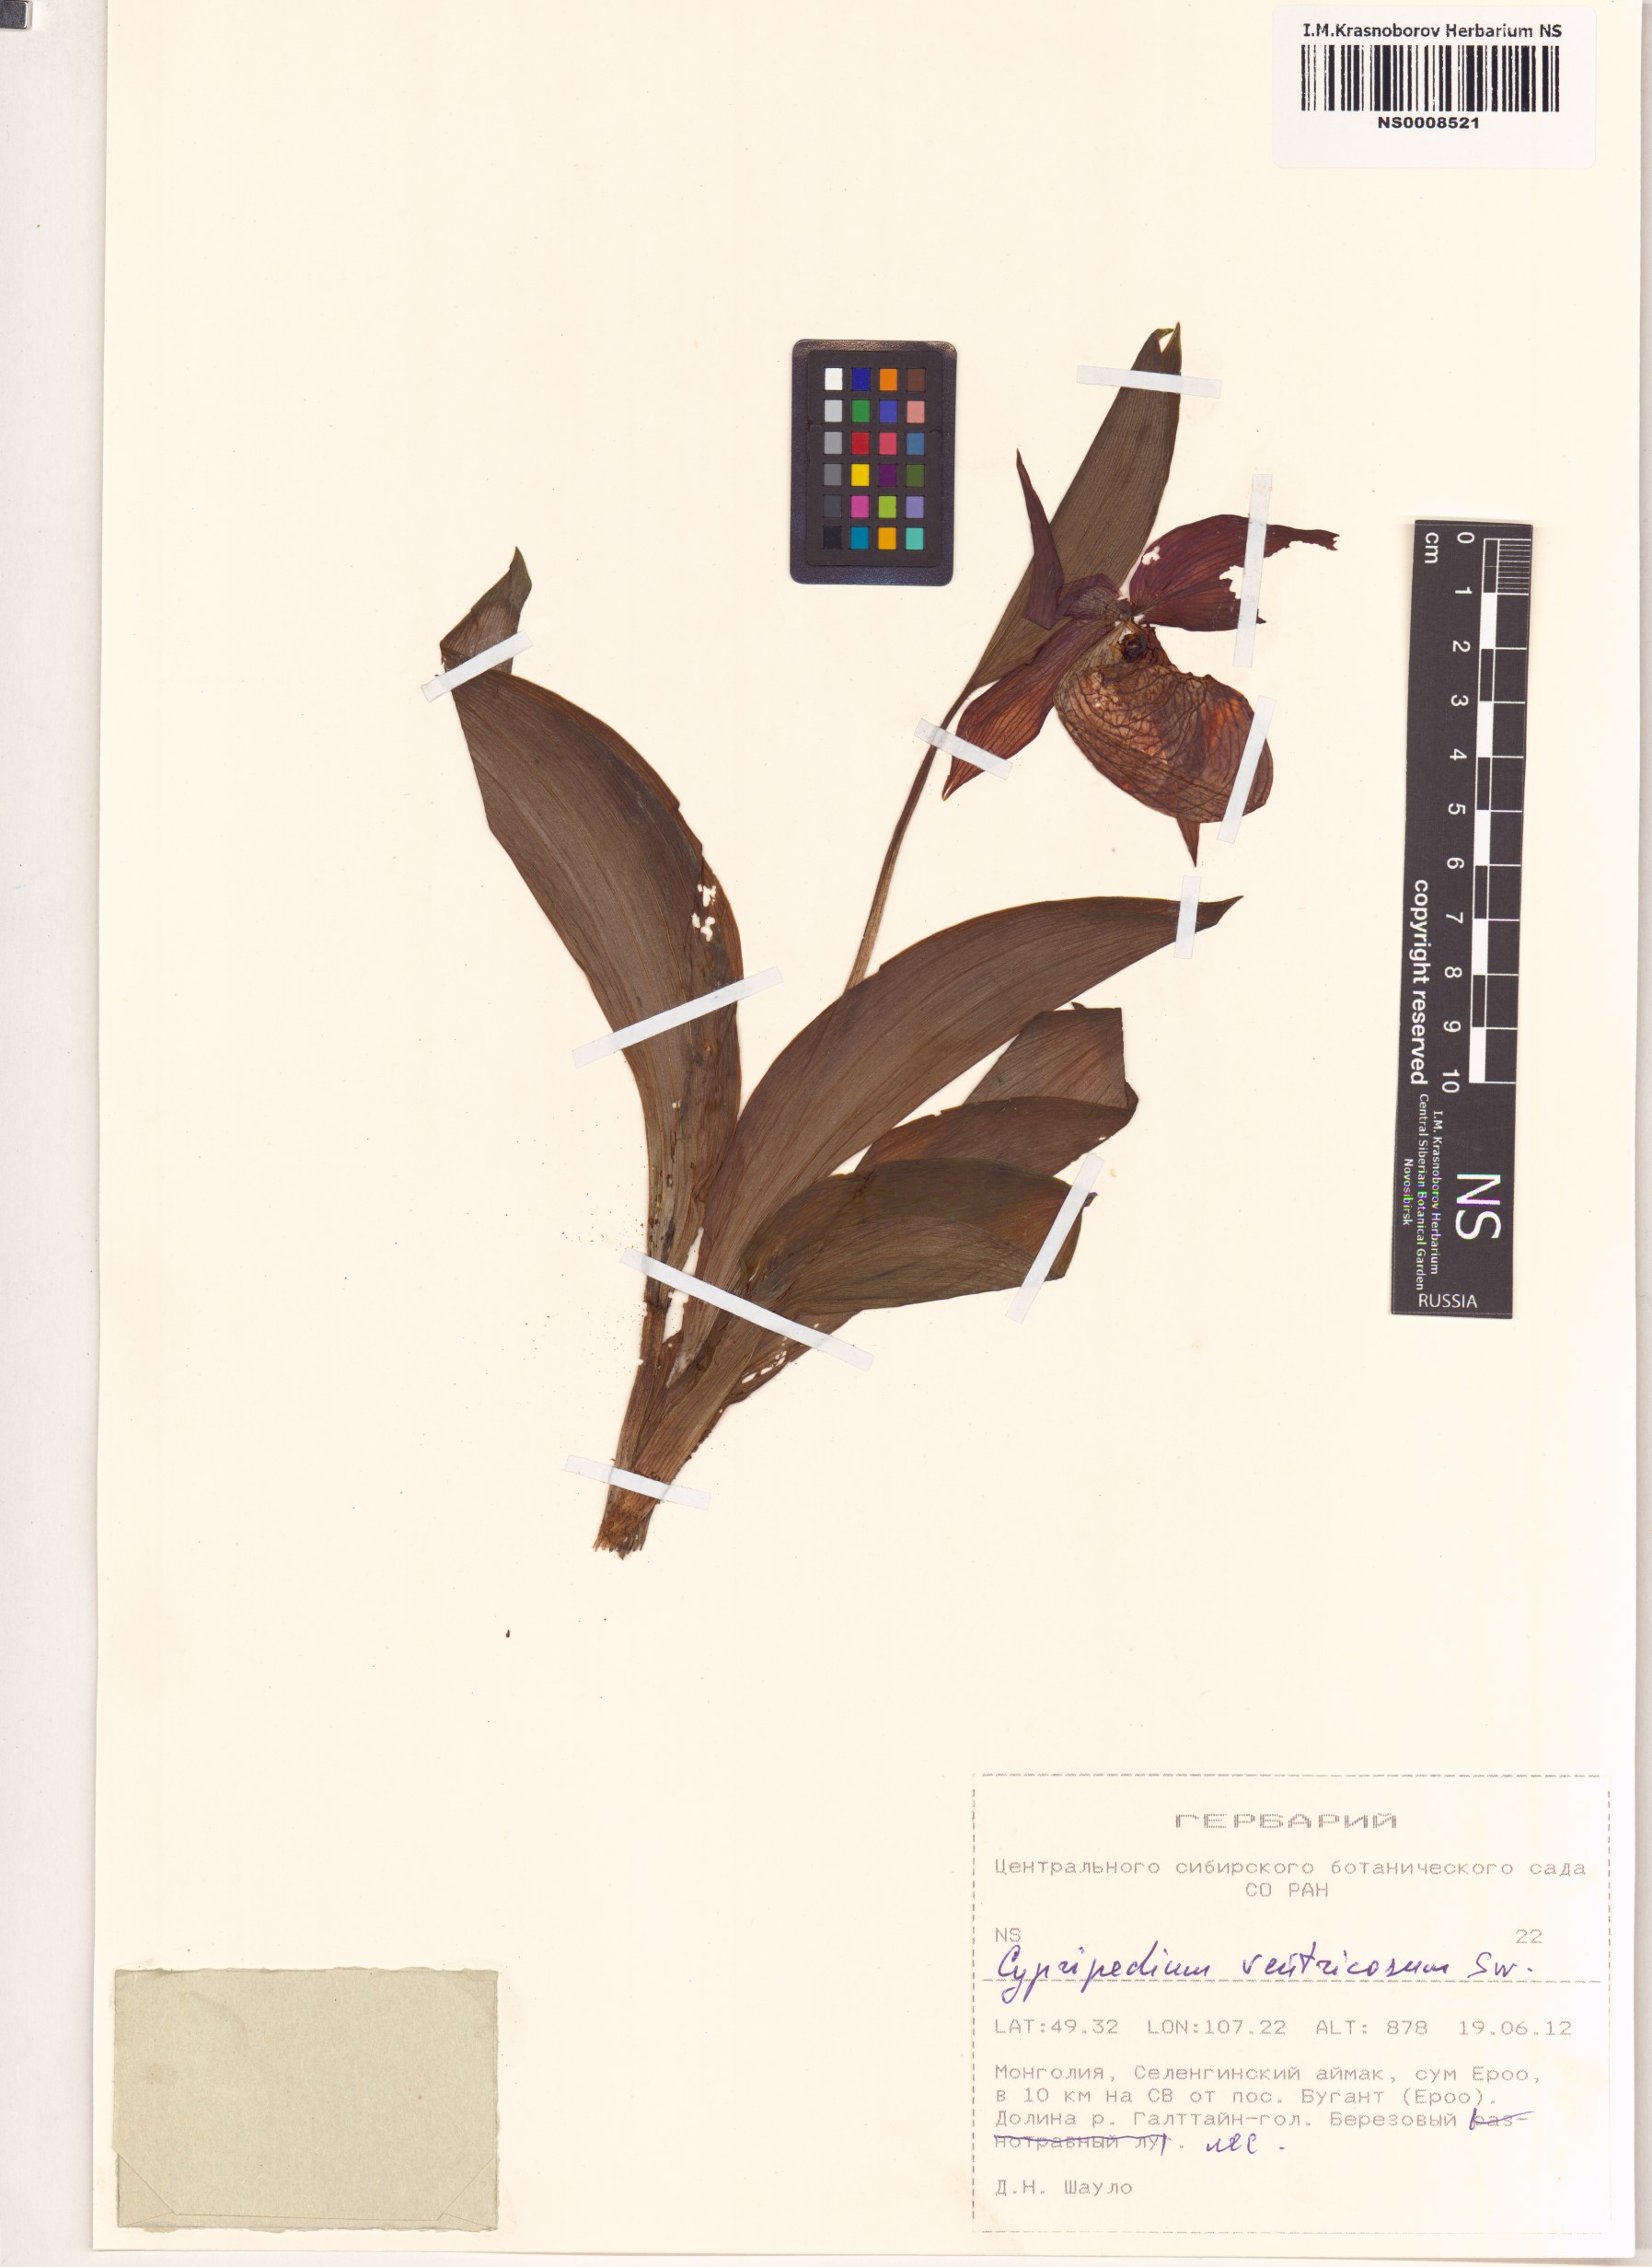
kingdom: Plantae
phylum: Tracheophyta
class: Liliopsida
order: Asparagales
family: Orchidaceae
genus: Cypripedium
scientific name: Cypripedium ventricosum
